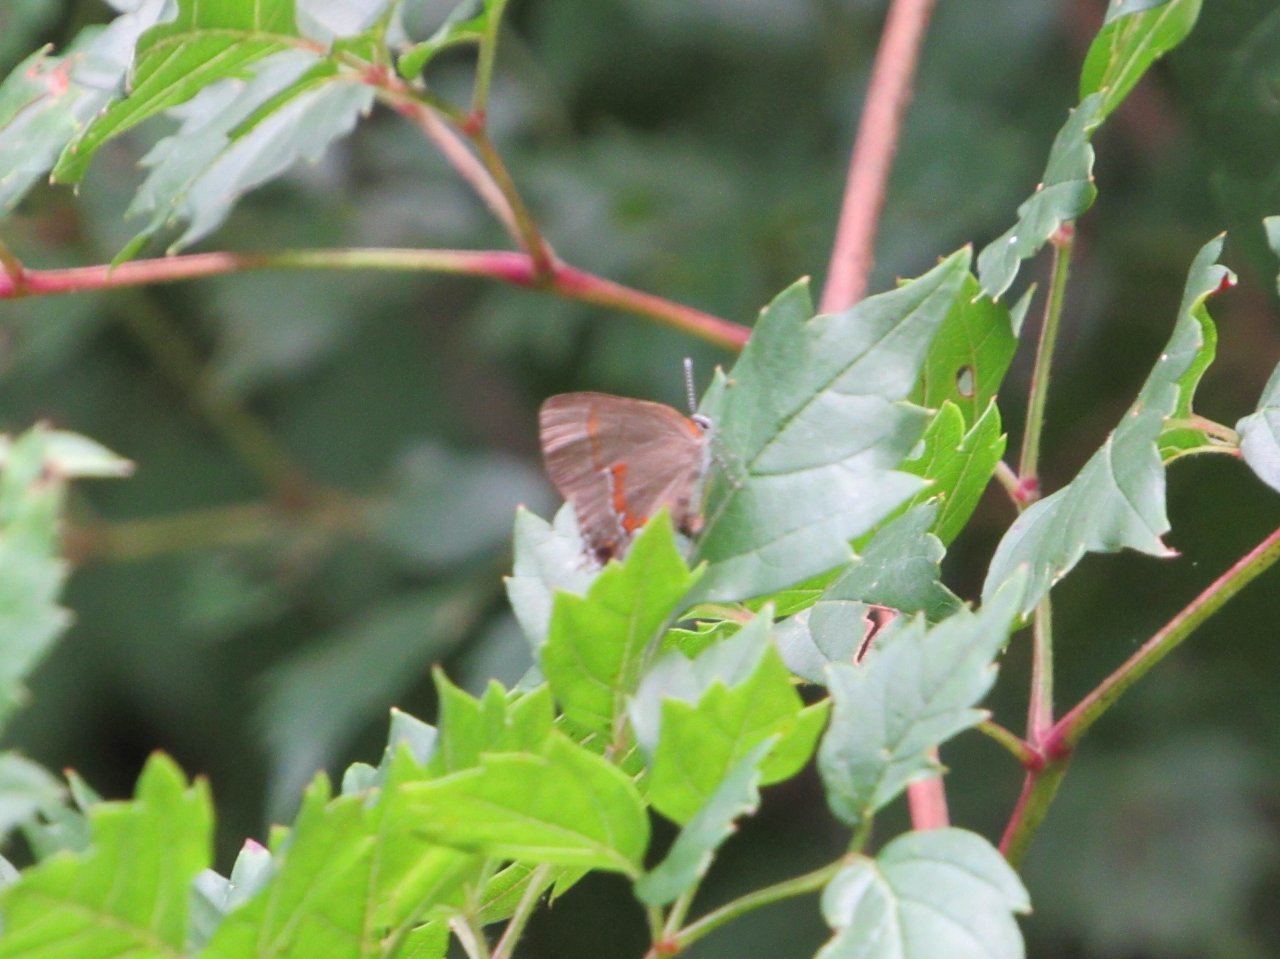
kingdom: Animalia
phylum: Arthropoda
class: Insecta
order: Lepidoptera
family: Lycaenidae
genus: Calycopis
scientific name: Calycopis cecrops
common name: Red-banded Hairstreak
